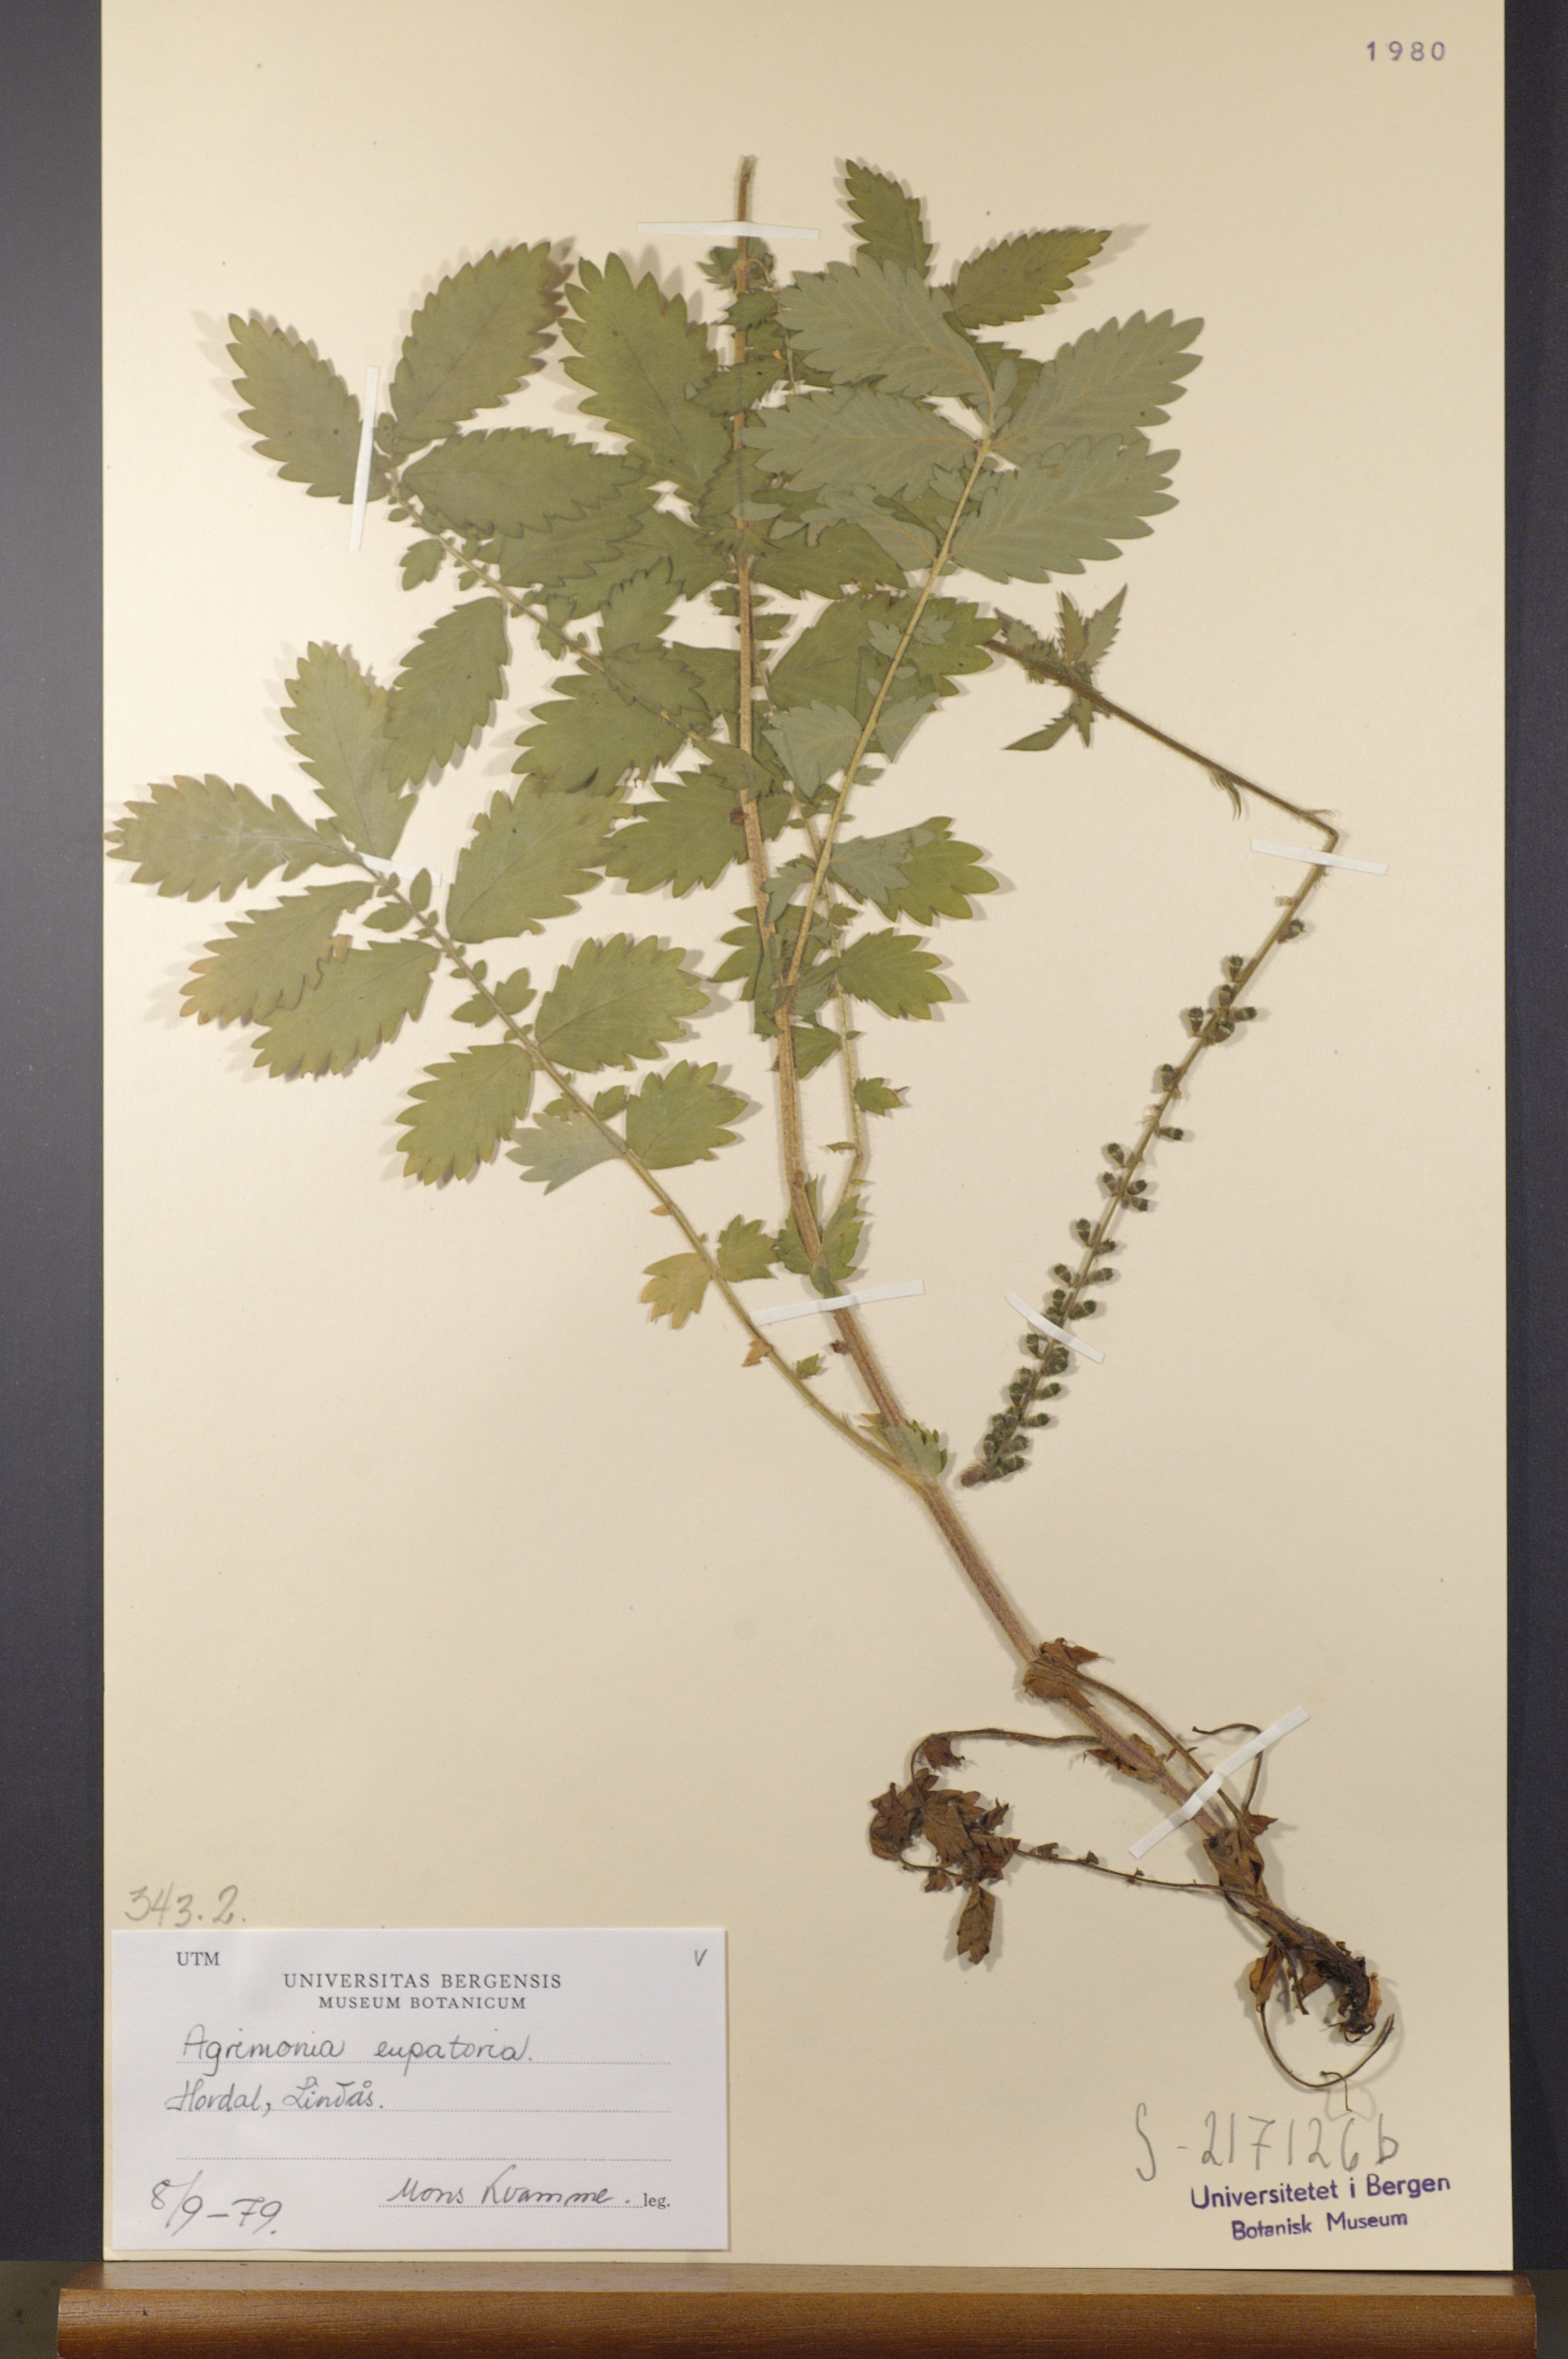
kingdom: Plantae
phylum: Tracheophyta
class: Magnoliopsida
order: Rosales
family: Rosaceae
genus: Agrimonia
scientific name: Agrimonia eupatoria
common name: Agrimony
